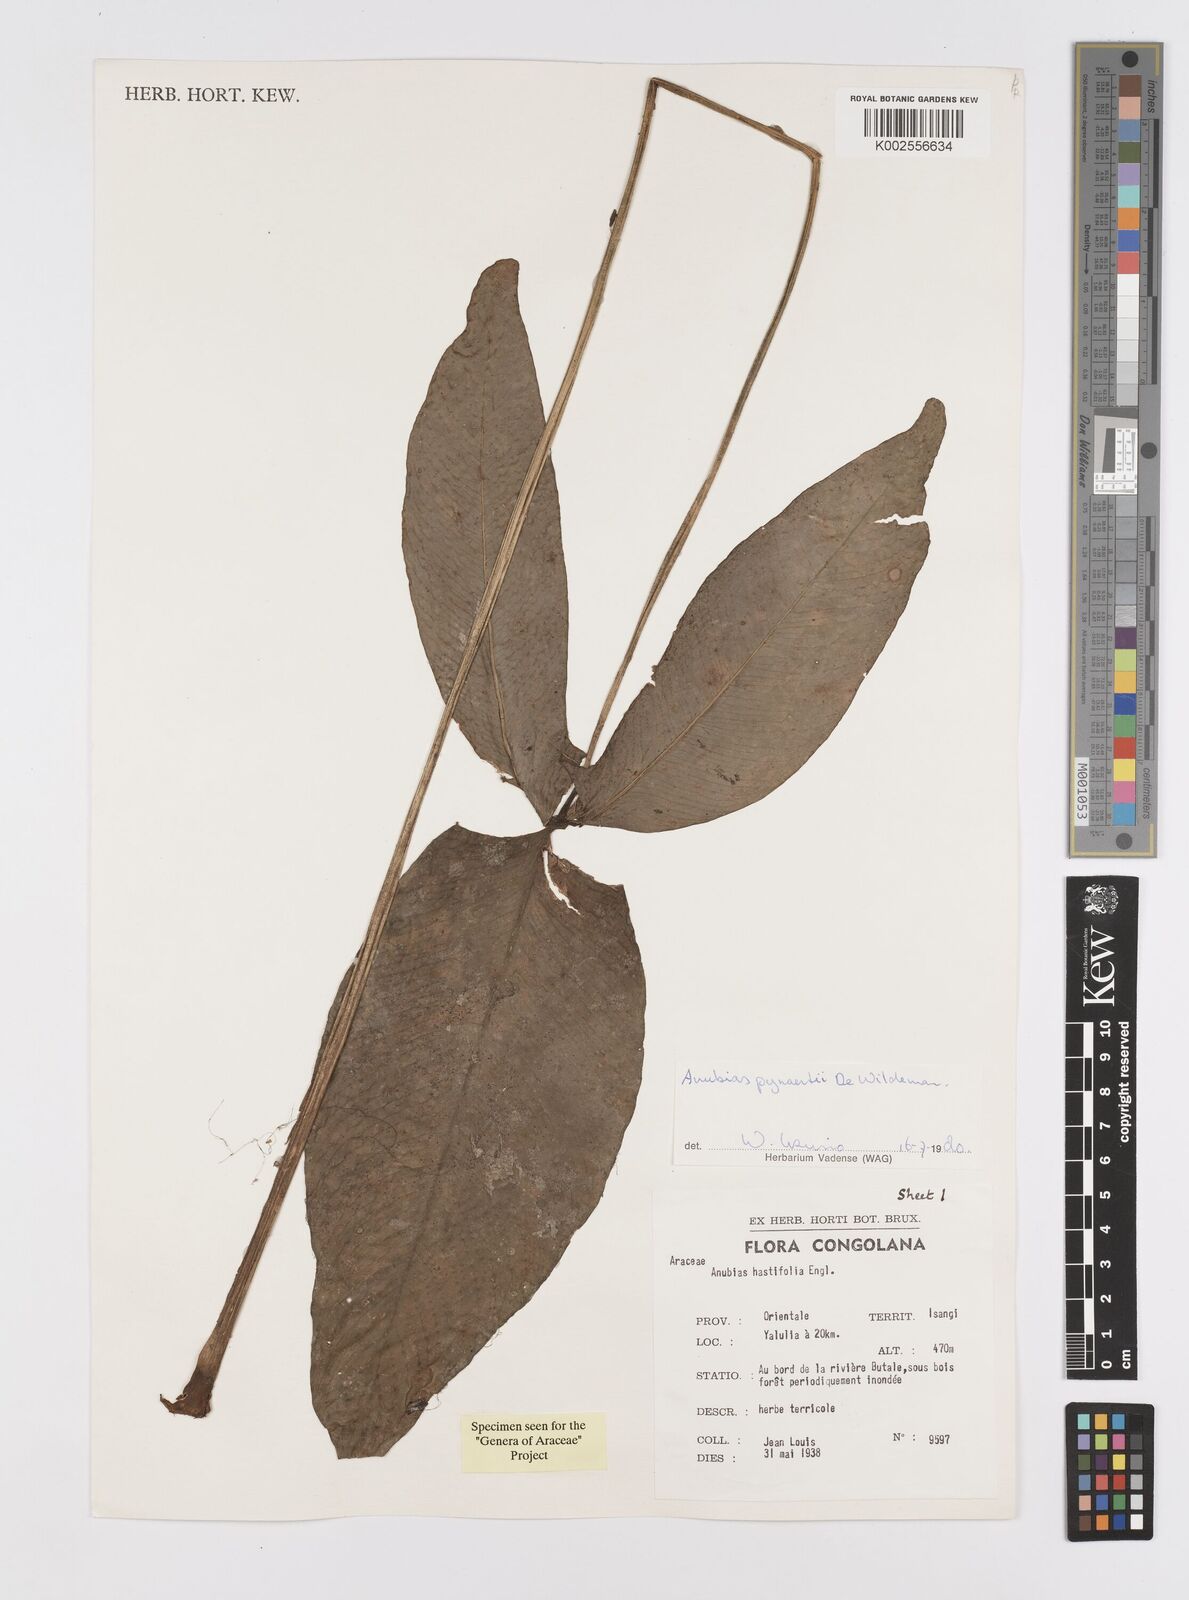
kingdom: Plantae
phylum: Tracheophyta
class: Liliopsida
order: Alismatales
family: Araceae
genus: Anubias
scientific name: Anubias pynaertii
